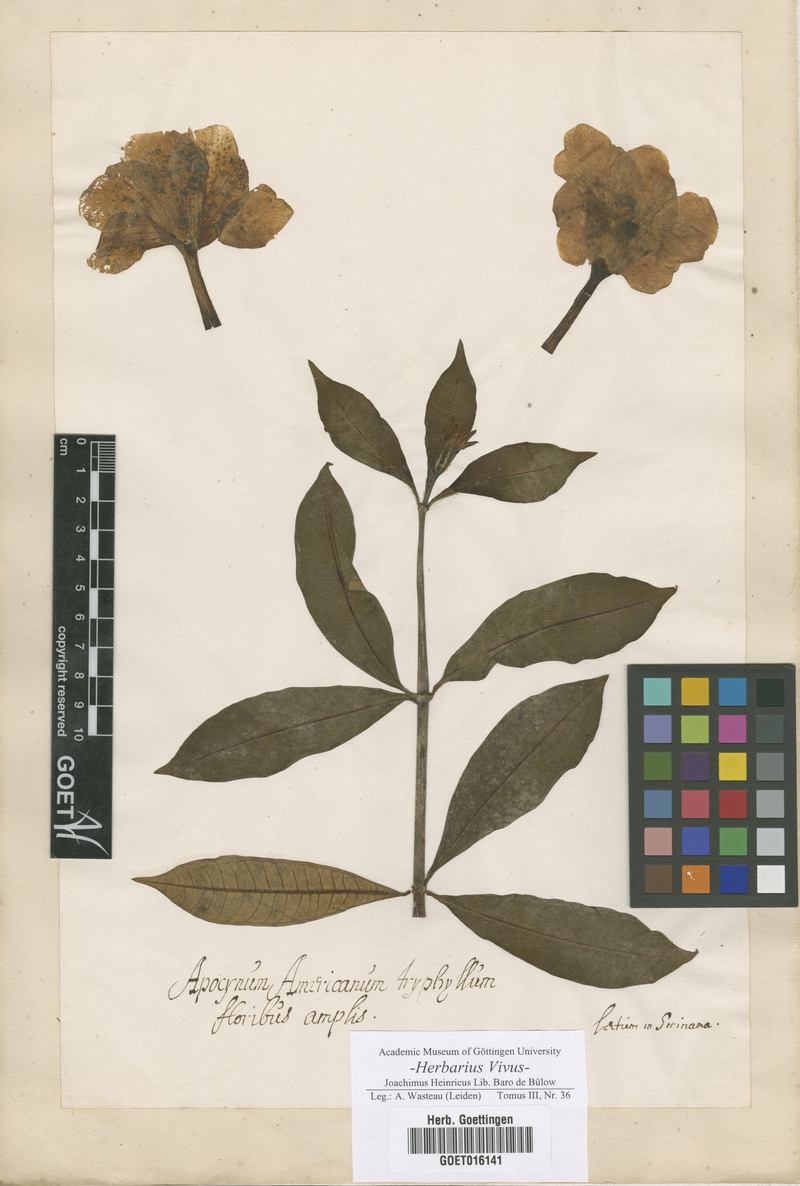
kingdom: Plantae
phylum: Tracheophyta
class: Magnoliopsida
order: Gentianales
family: Apocynaceae
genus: Apocynum
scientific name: Apocynum
